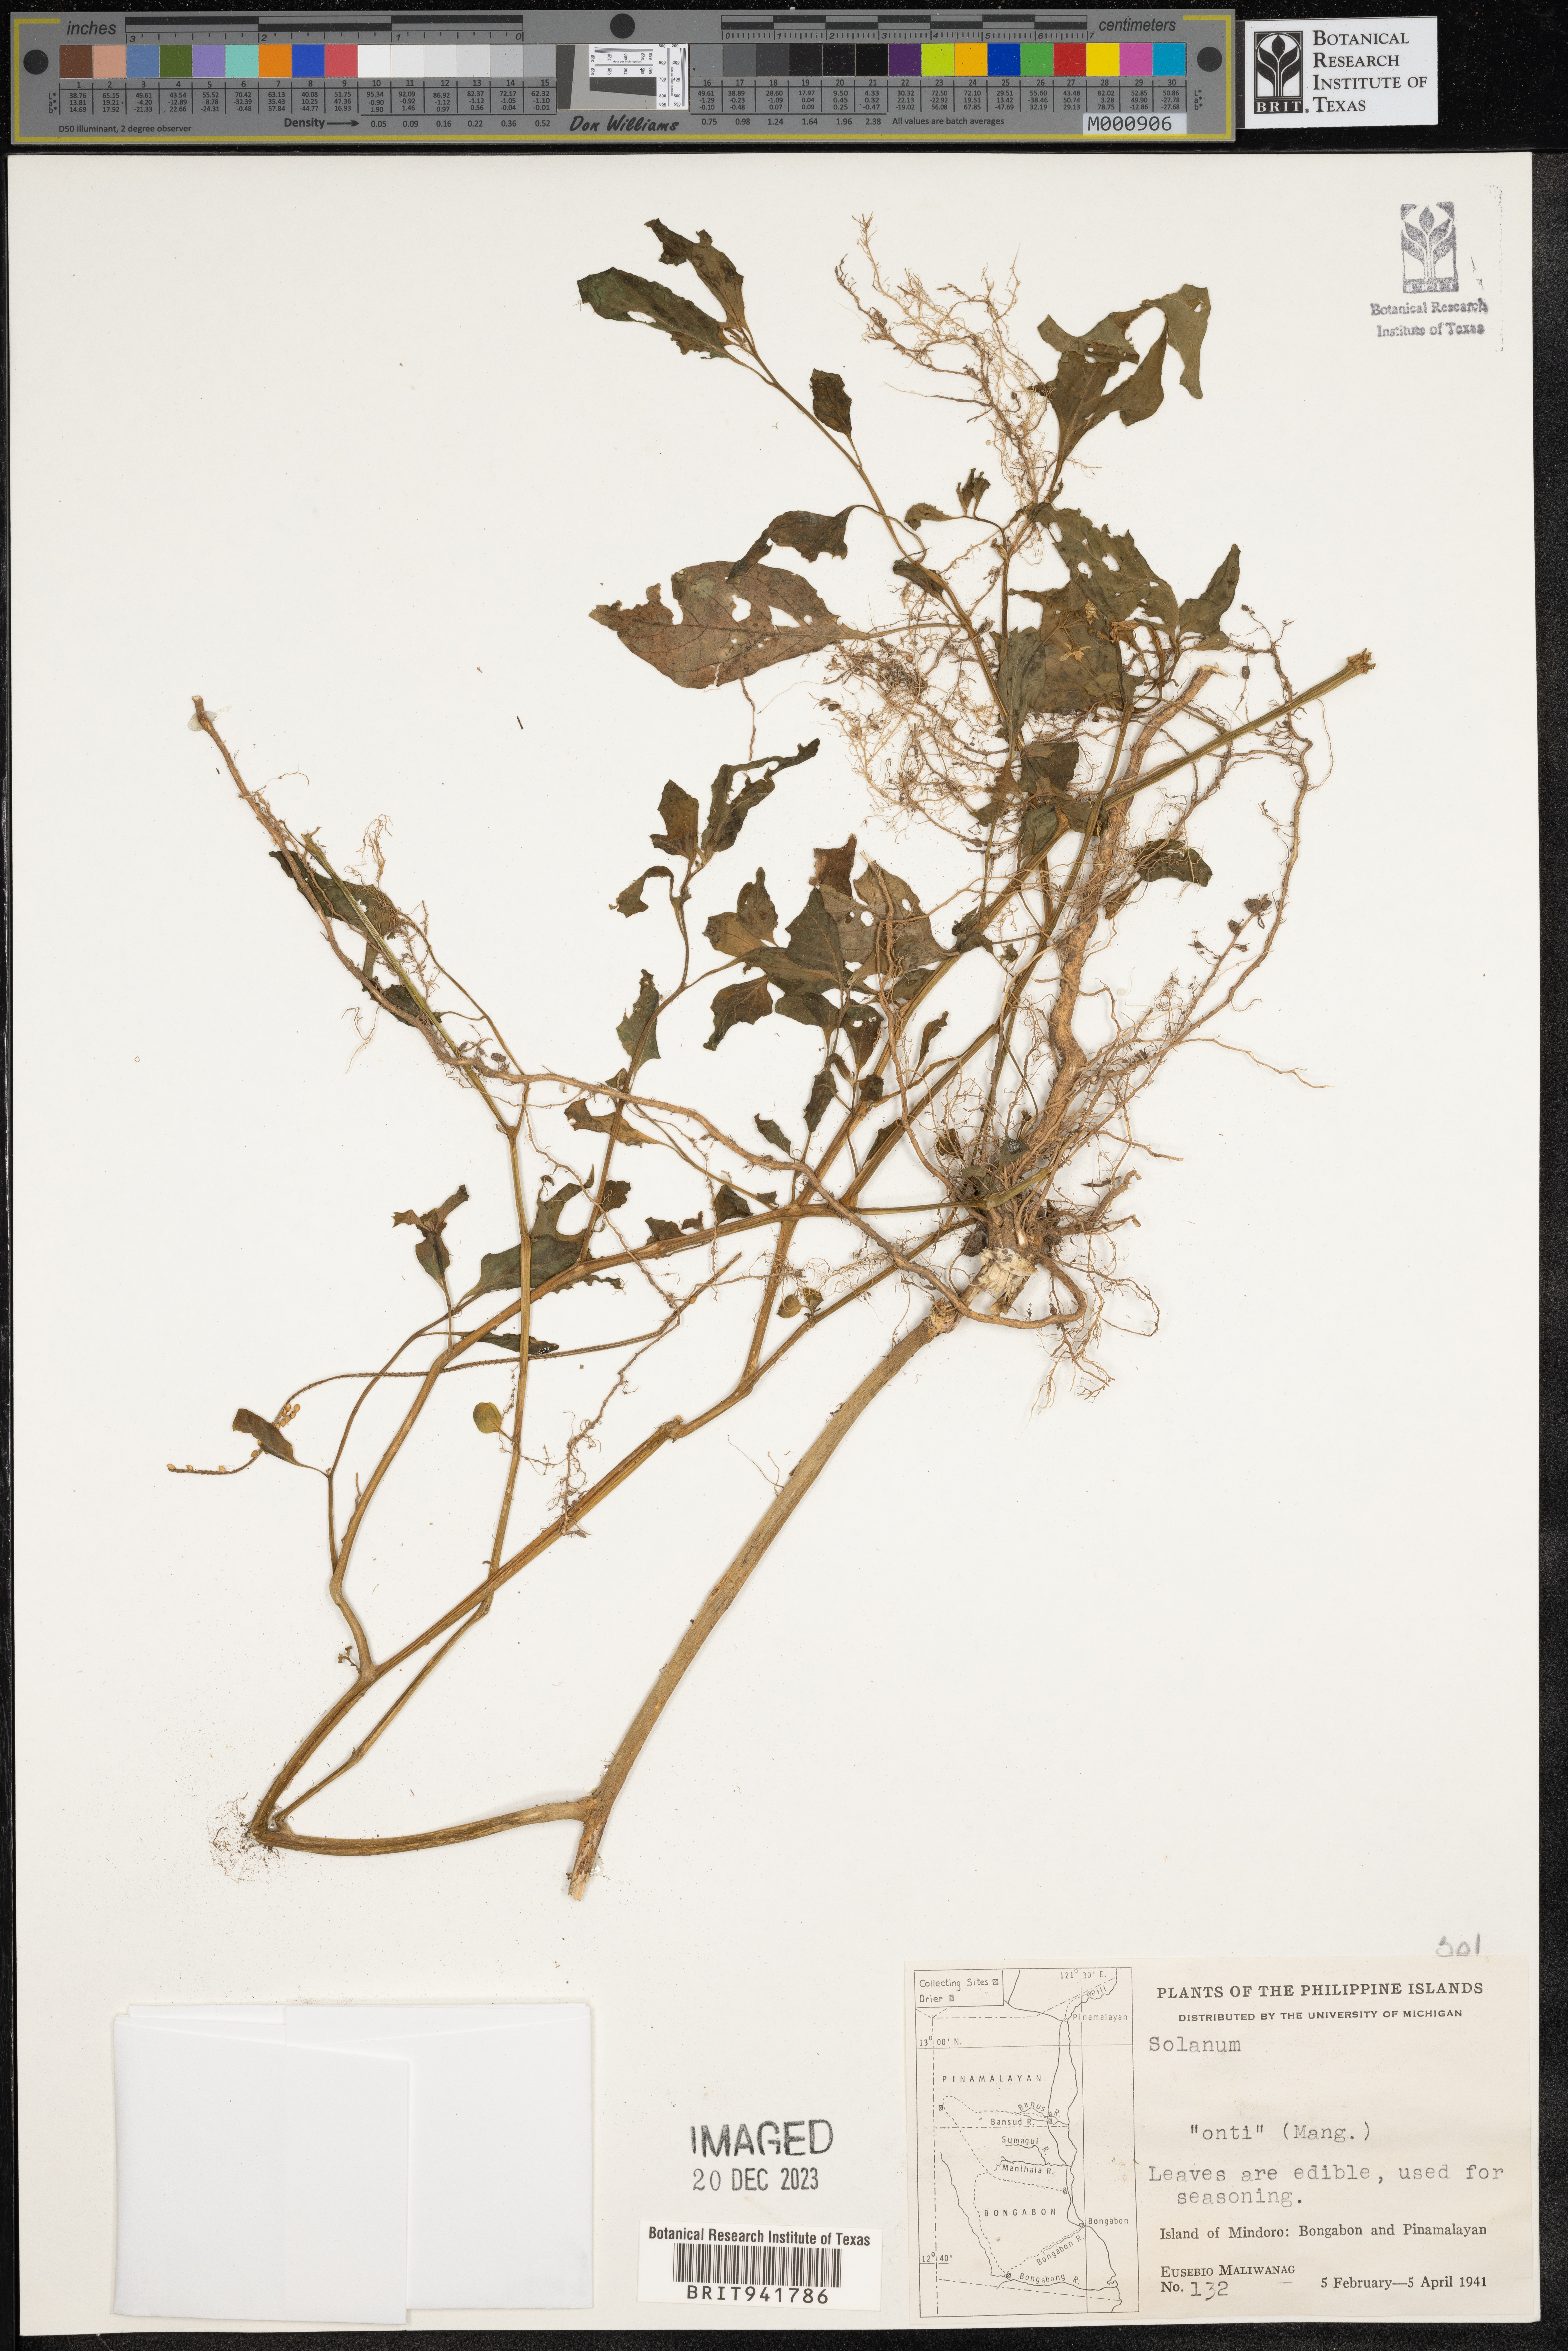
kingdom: Plantae
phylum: Tracheophyta
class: Magnoliopsida
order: Solanales
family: Solanaceae
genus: Solanum
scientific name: Solanum
